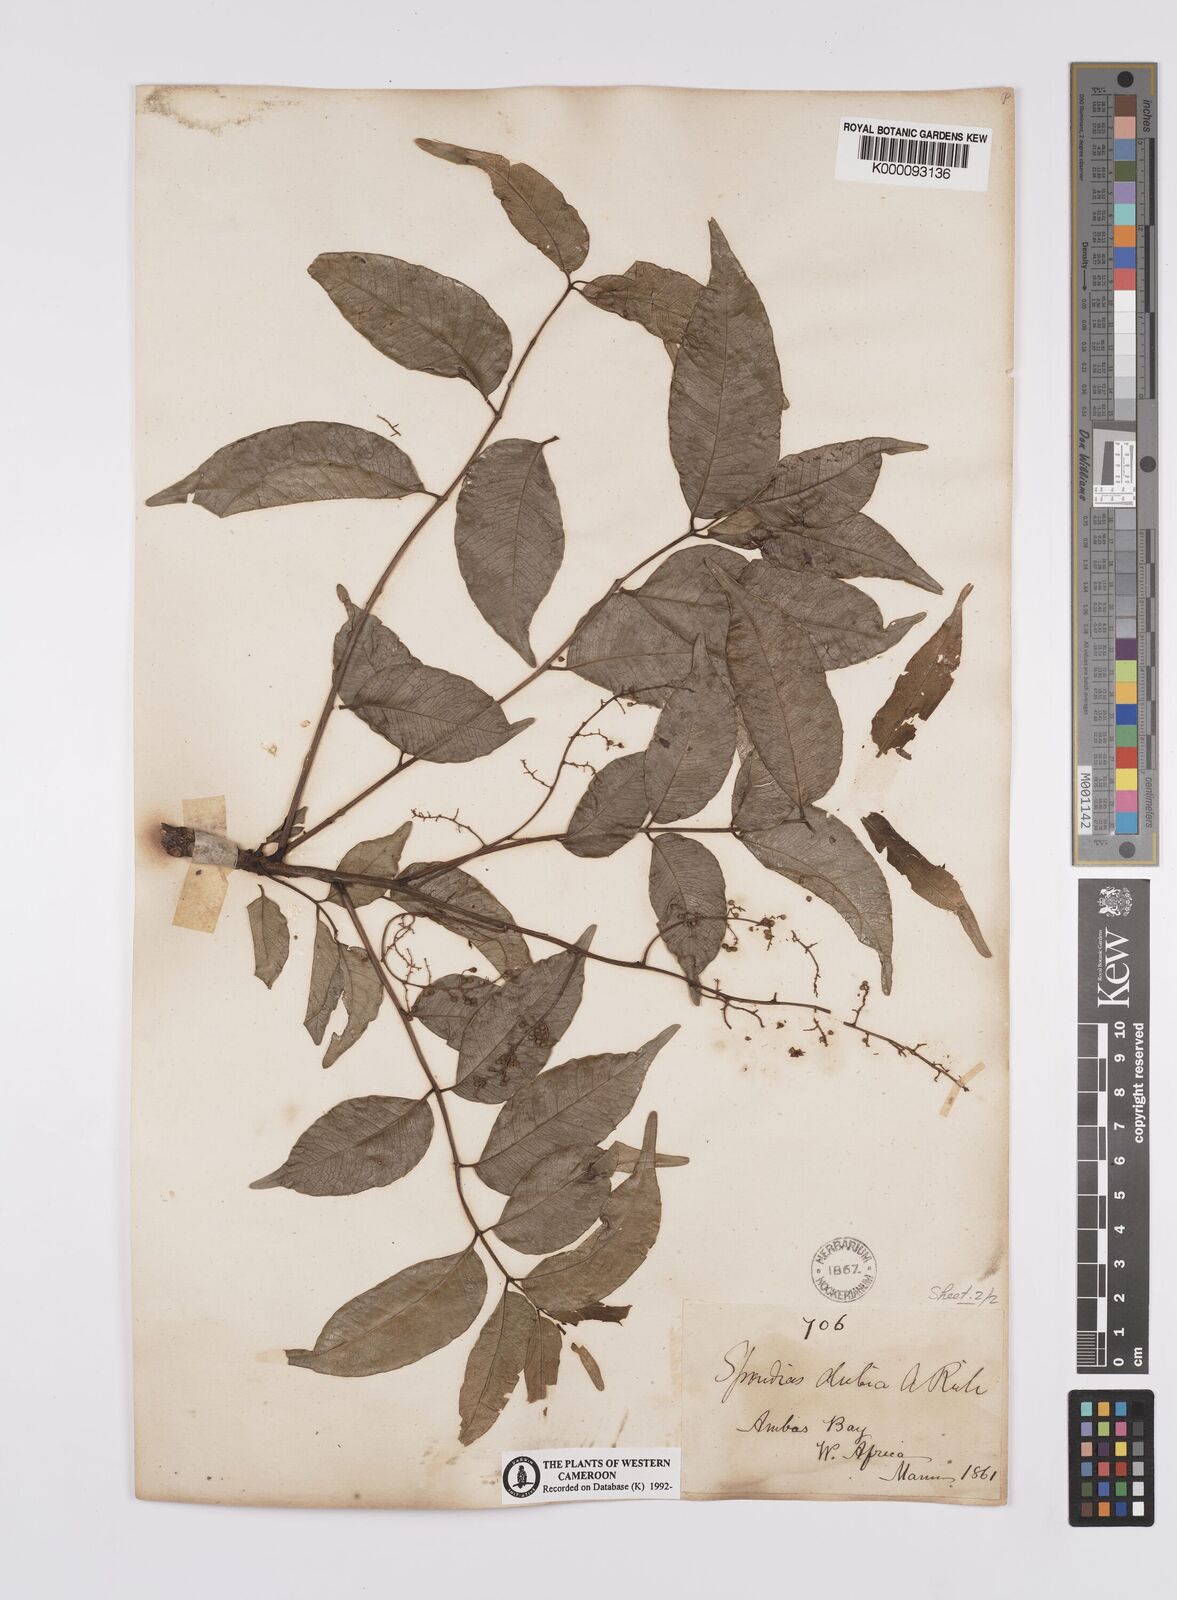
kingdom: Plantae
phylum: Tracheophyta
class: Magnoliopsida
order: Sapindales
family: Anacardiaceae
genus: Spondias
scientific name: Spondias mombin
